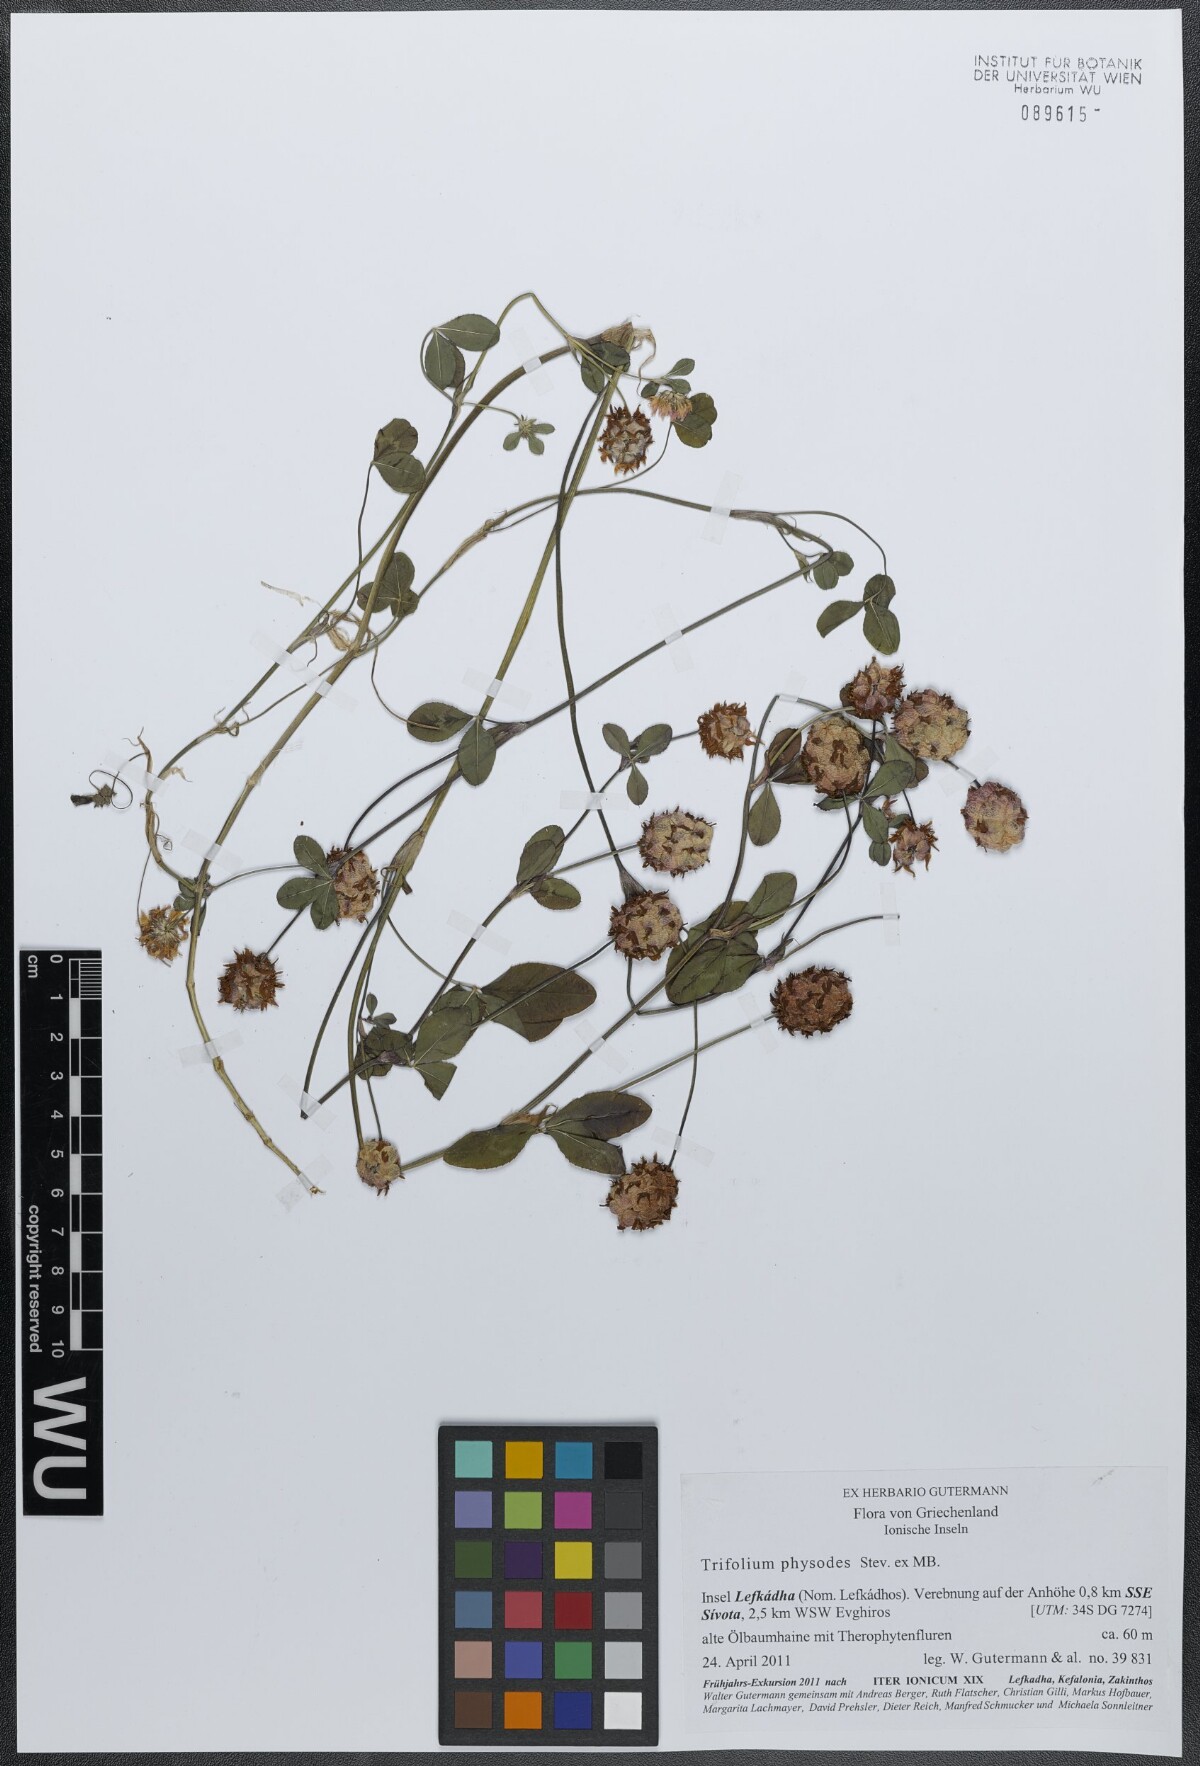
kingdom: Plantae
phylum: Tracheophyta
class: Magnoliopsida
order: Fabales
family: Fabaceae
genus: Trifolium
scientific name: Trifolium physodes
